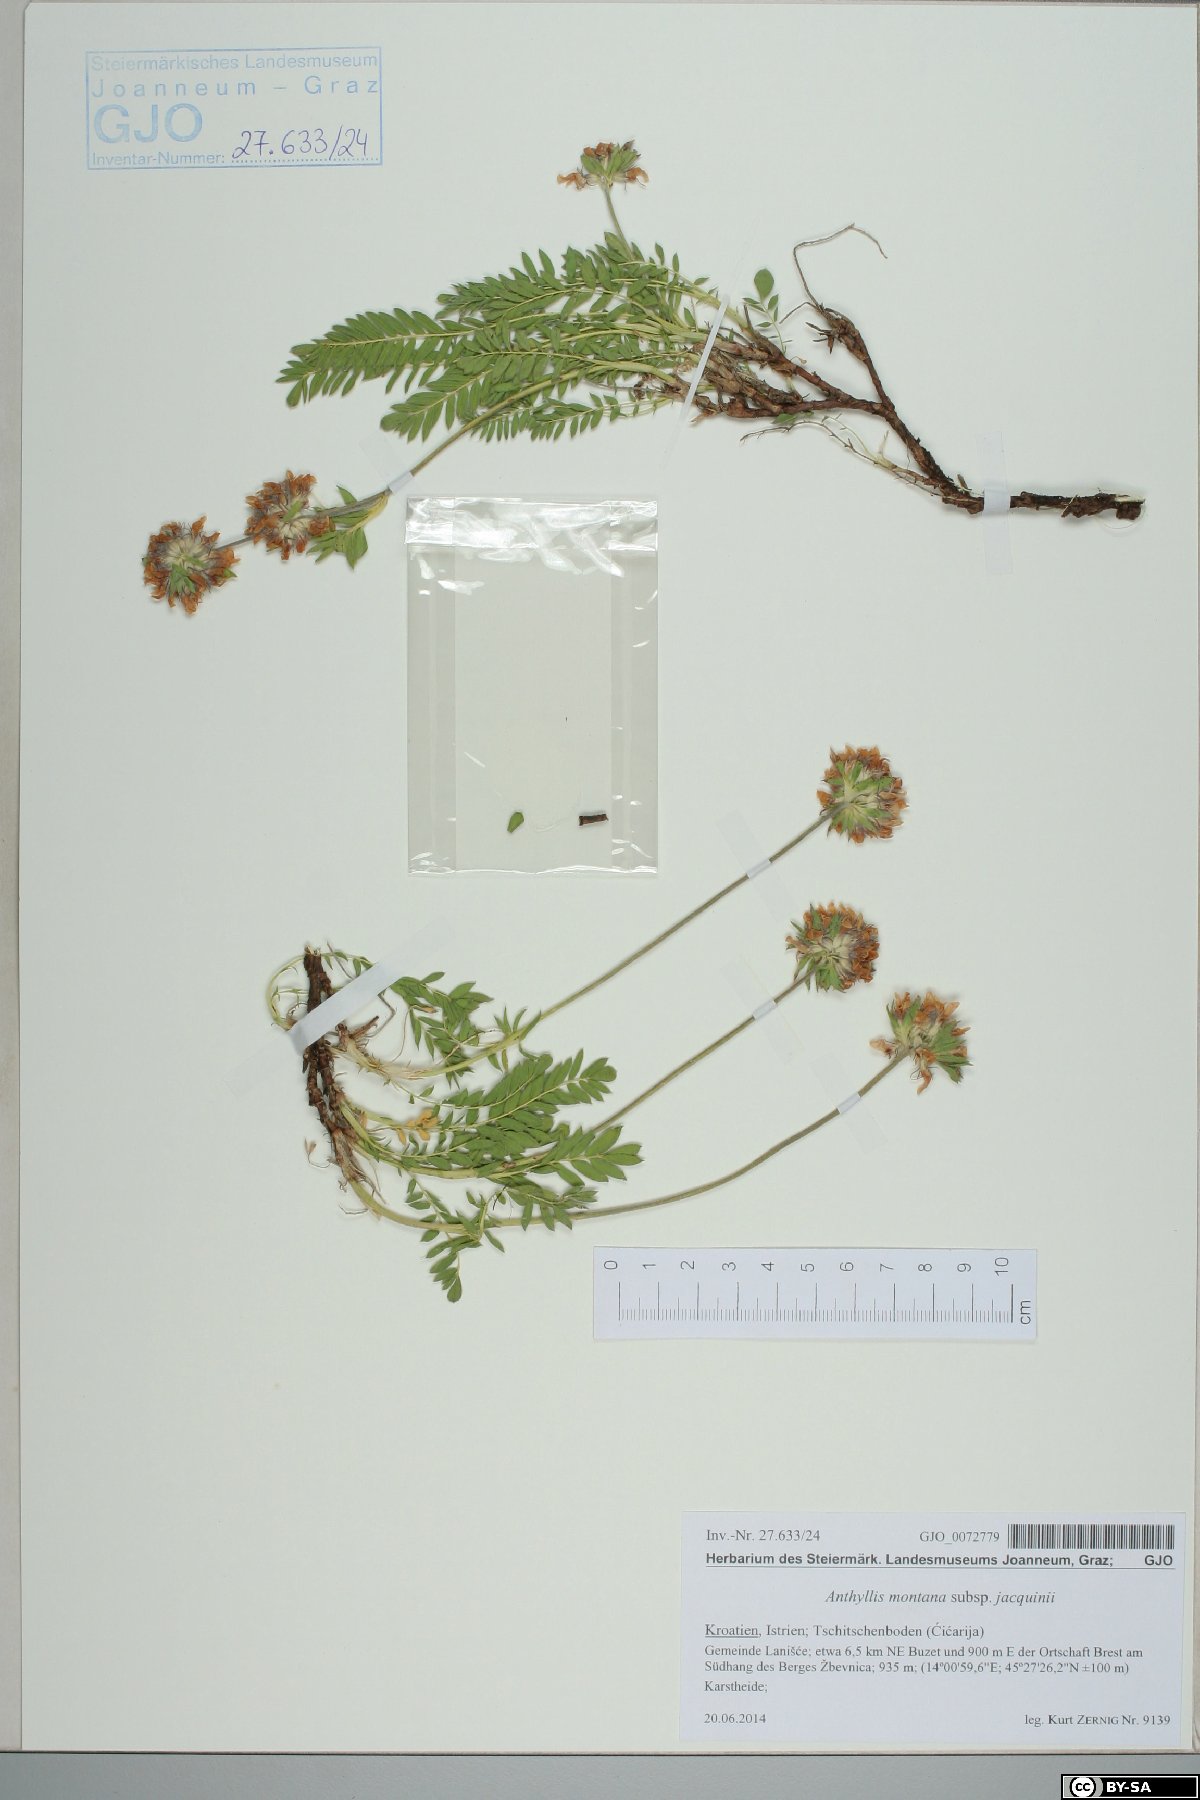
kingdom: Plantae
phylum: Tracheophyta
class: Magnoliopsida
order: Fabales
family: Fabaceae
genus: Anthyllis
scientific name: Anthyllis montana
